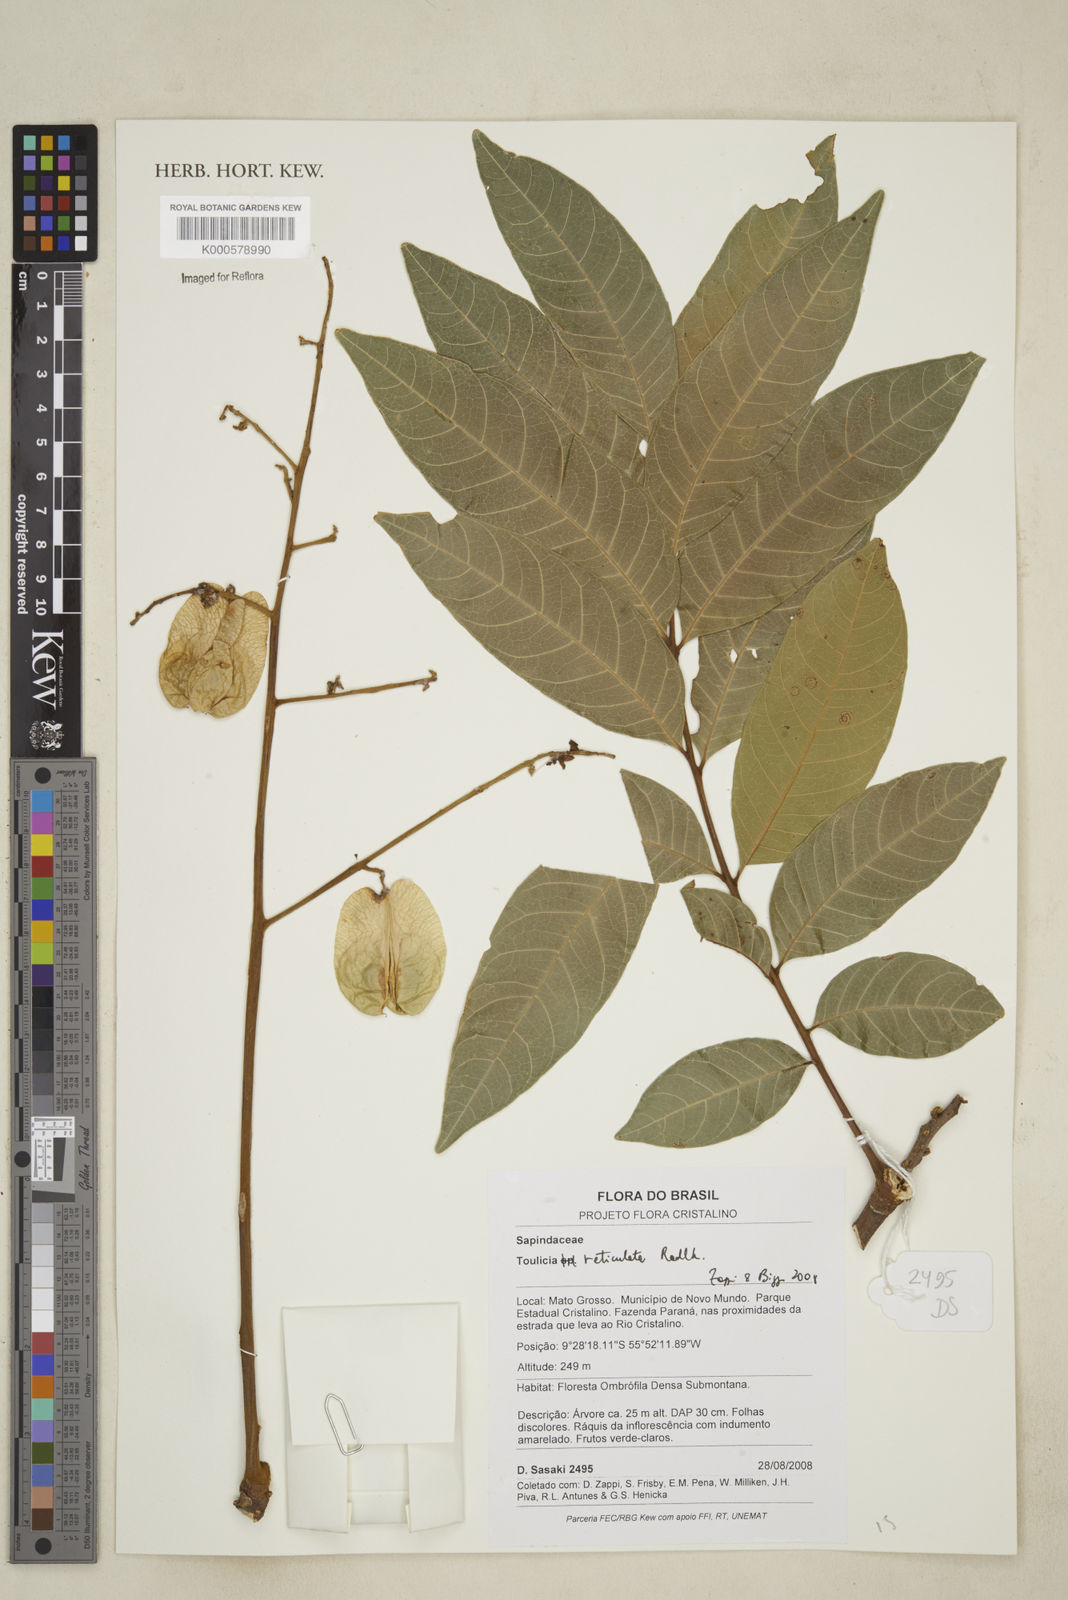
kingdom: Plantae
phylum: Tracheophyta
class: Magnoliopsida
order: Sapindales
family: Sapindaceae
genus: Toulicia
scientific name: Toulicia reticulata
